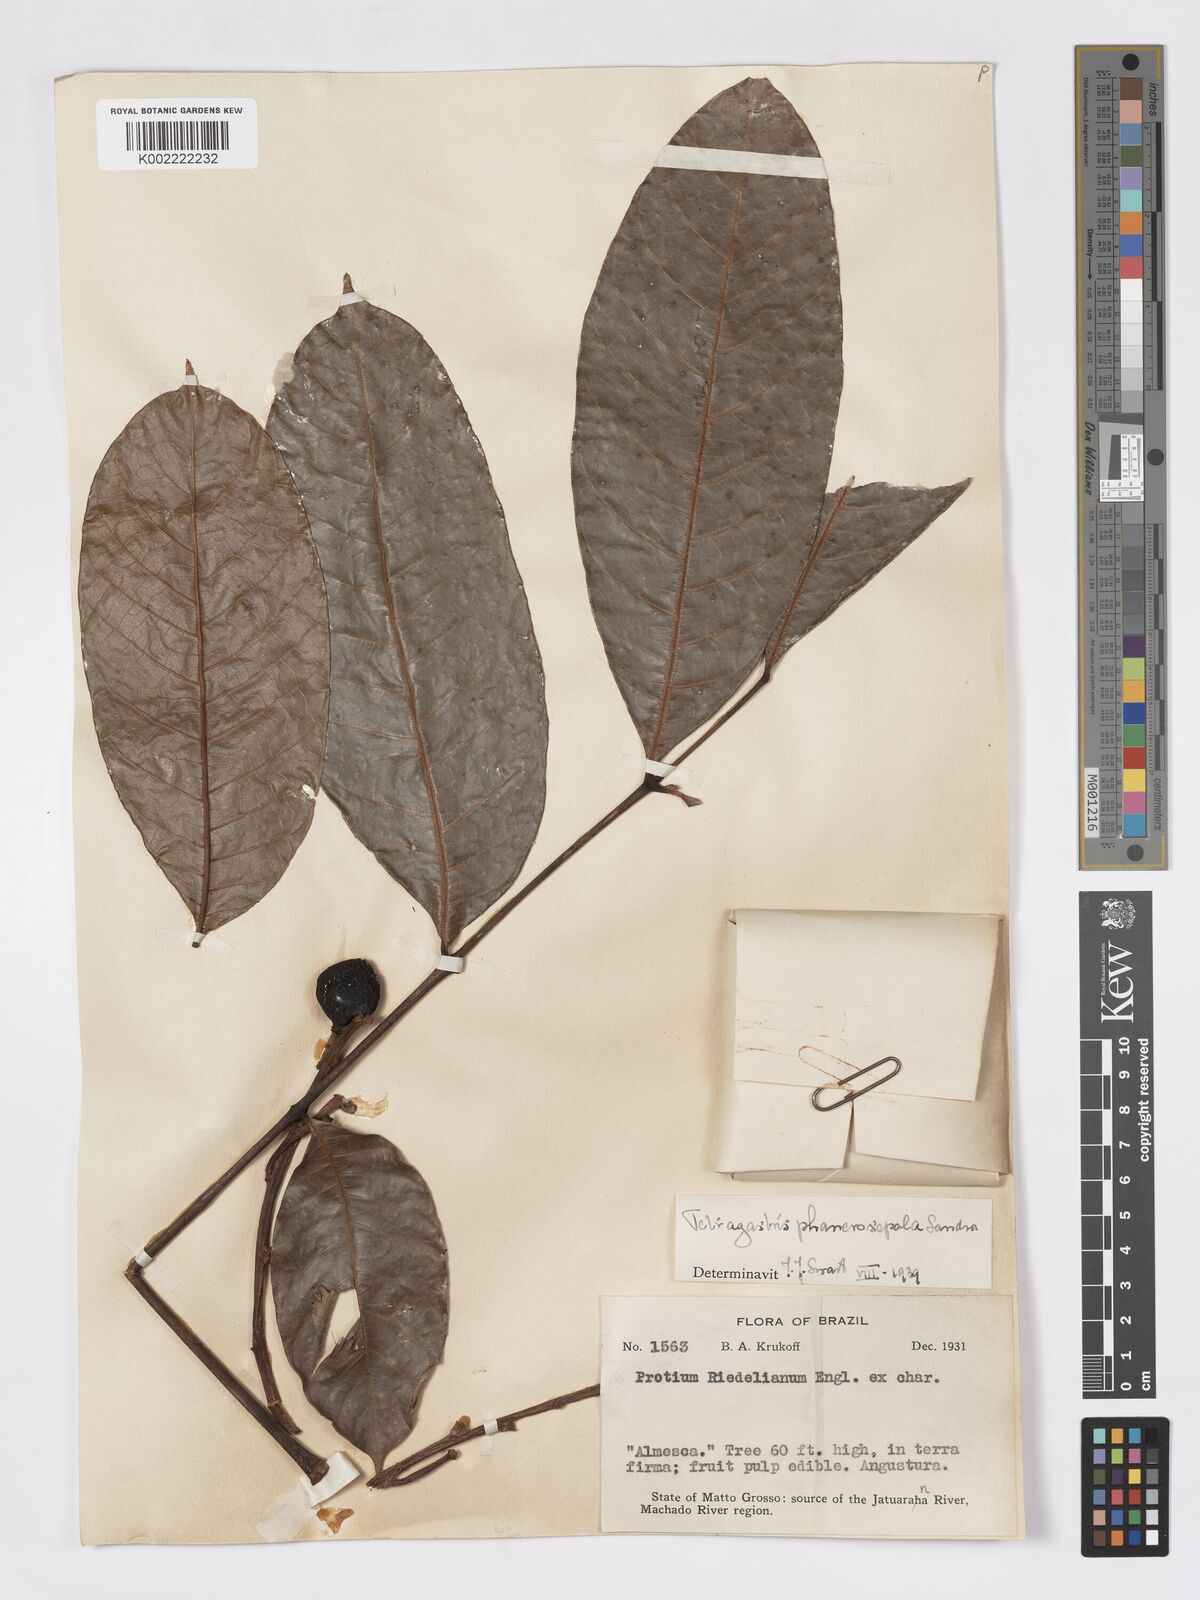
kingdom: Plantae
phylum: Tracheophyta
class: Magnoliopsida
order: Sapindales
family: Burseraceae
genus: Tetragastris
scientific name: Tetragastris altissima
